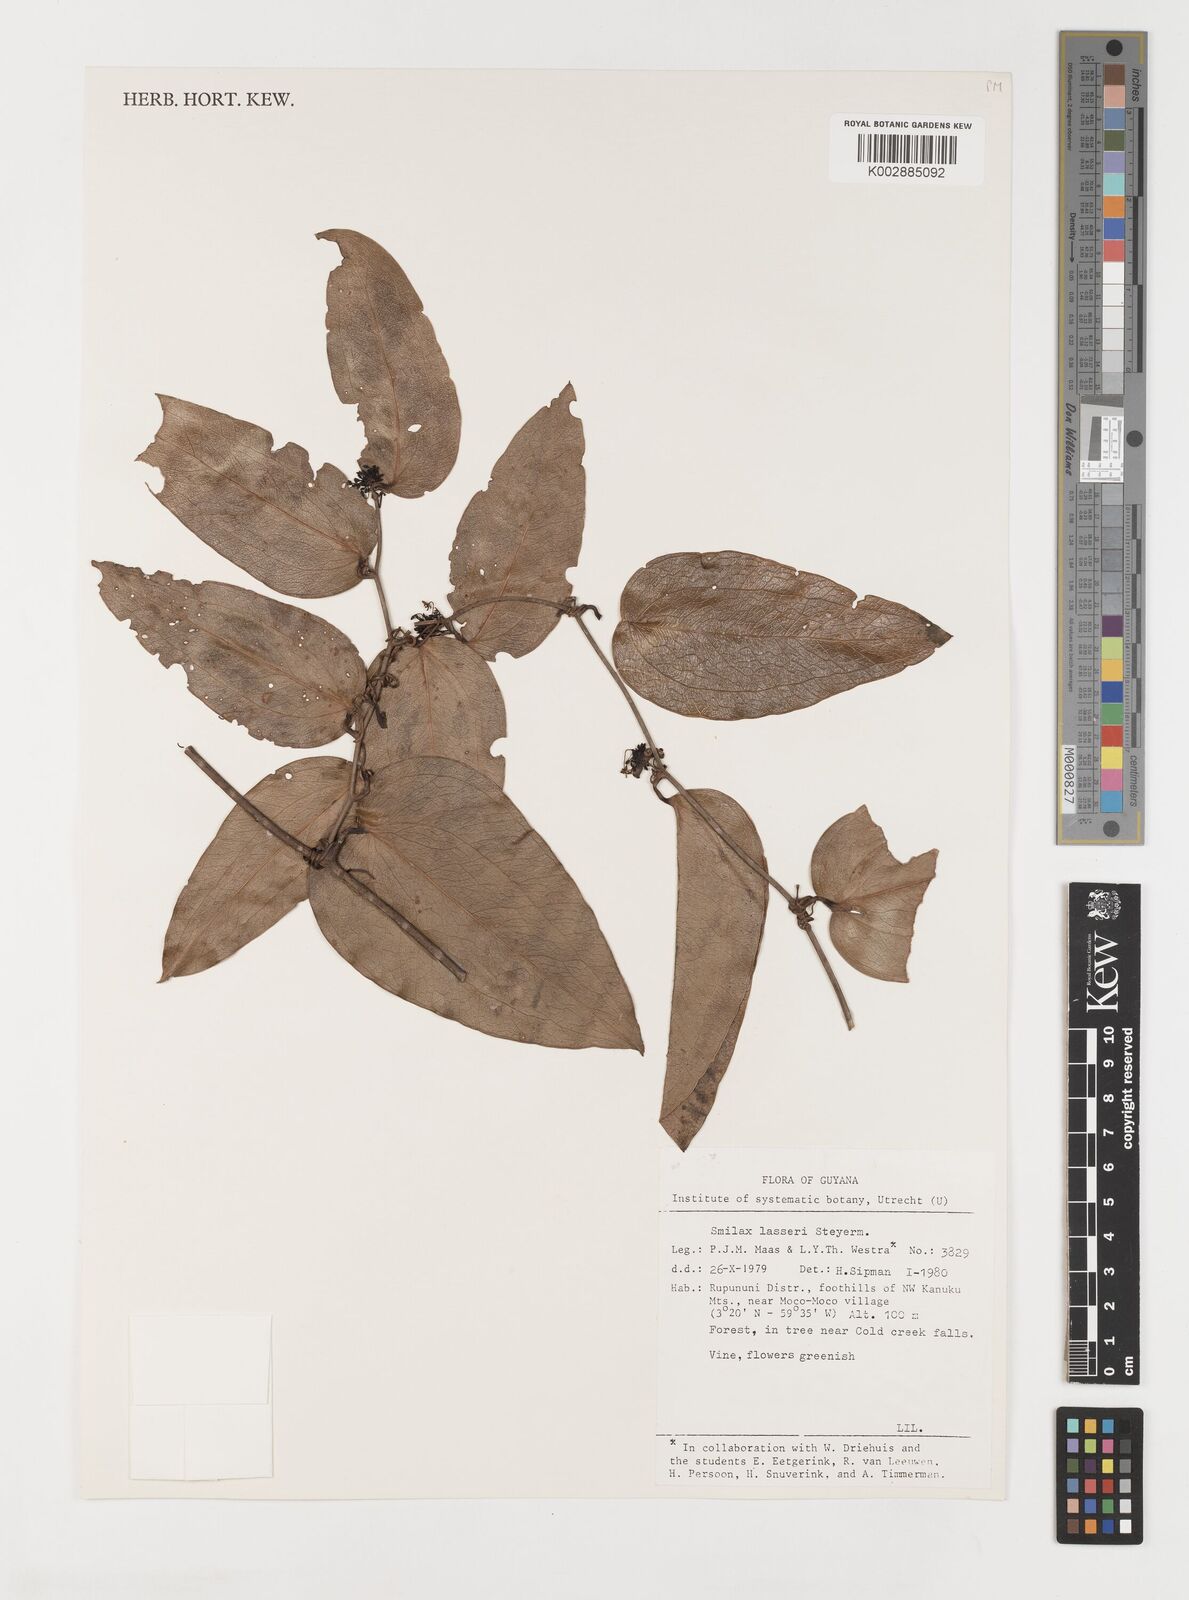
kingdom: Plantae
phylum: Tracheophyta
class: Liliopsida
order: Liliales
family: Smilacaceae
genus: Smilax
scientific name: Smilax domingensis
